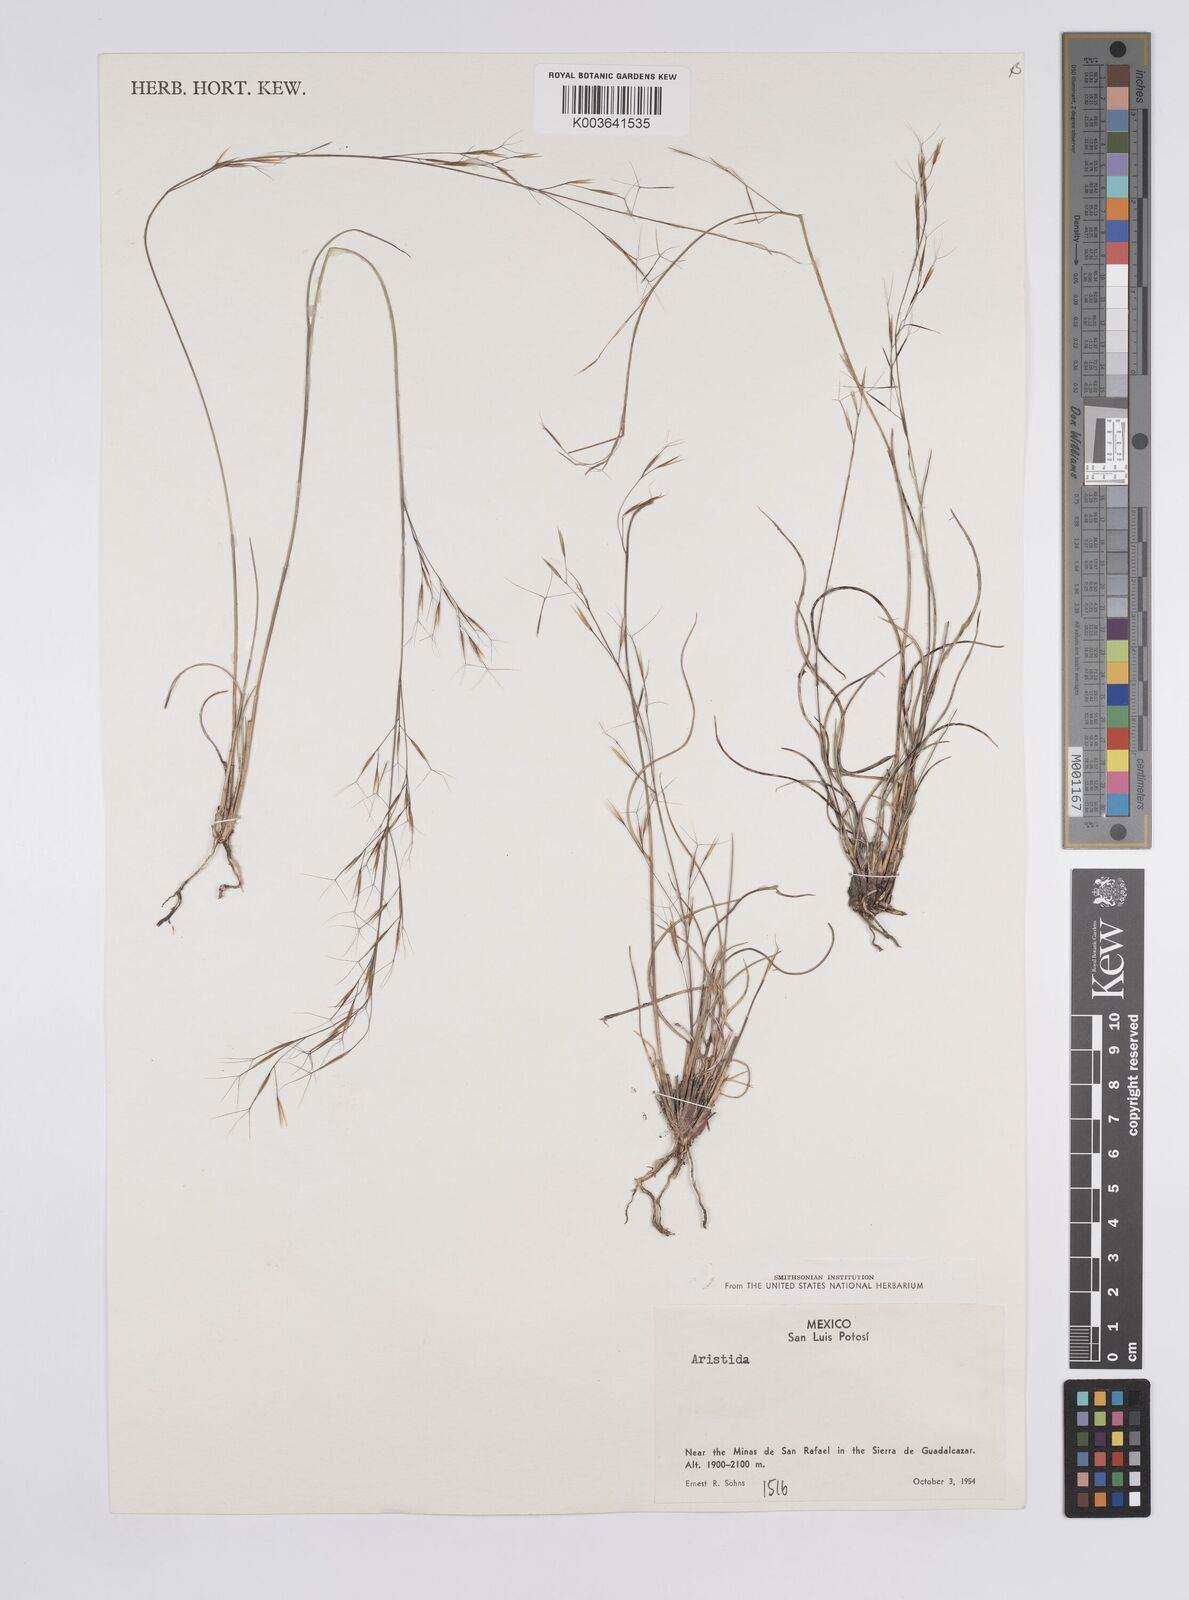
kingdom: Plantae
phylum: Tracheophyta
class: Liliopsida
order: Poales
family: Poaceae
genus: Aristida
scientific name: Aristida
